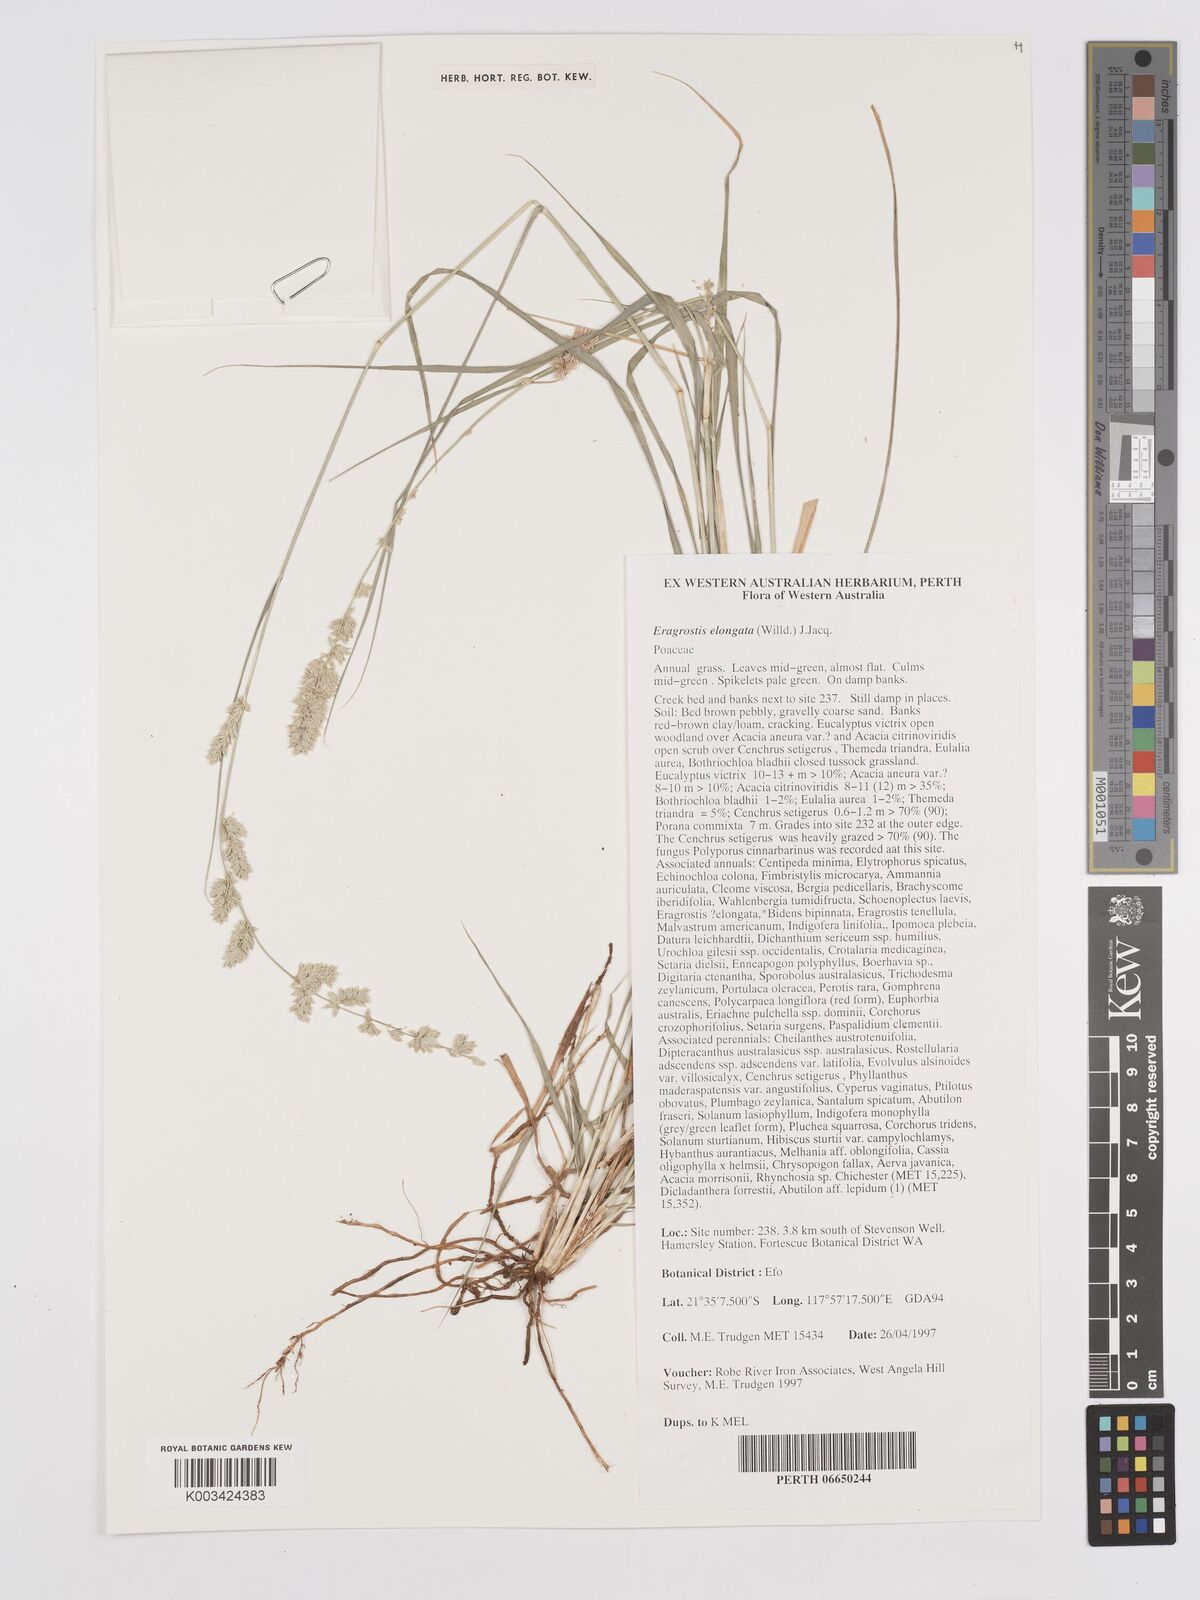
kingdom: Plantae
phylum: Tracheophyta
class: Liliopsida
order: Poales
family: Poaceae
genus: Eragrostis
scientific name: Eragrostis elongata
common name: Long lovegrass
